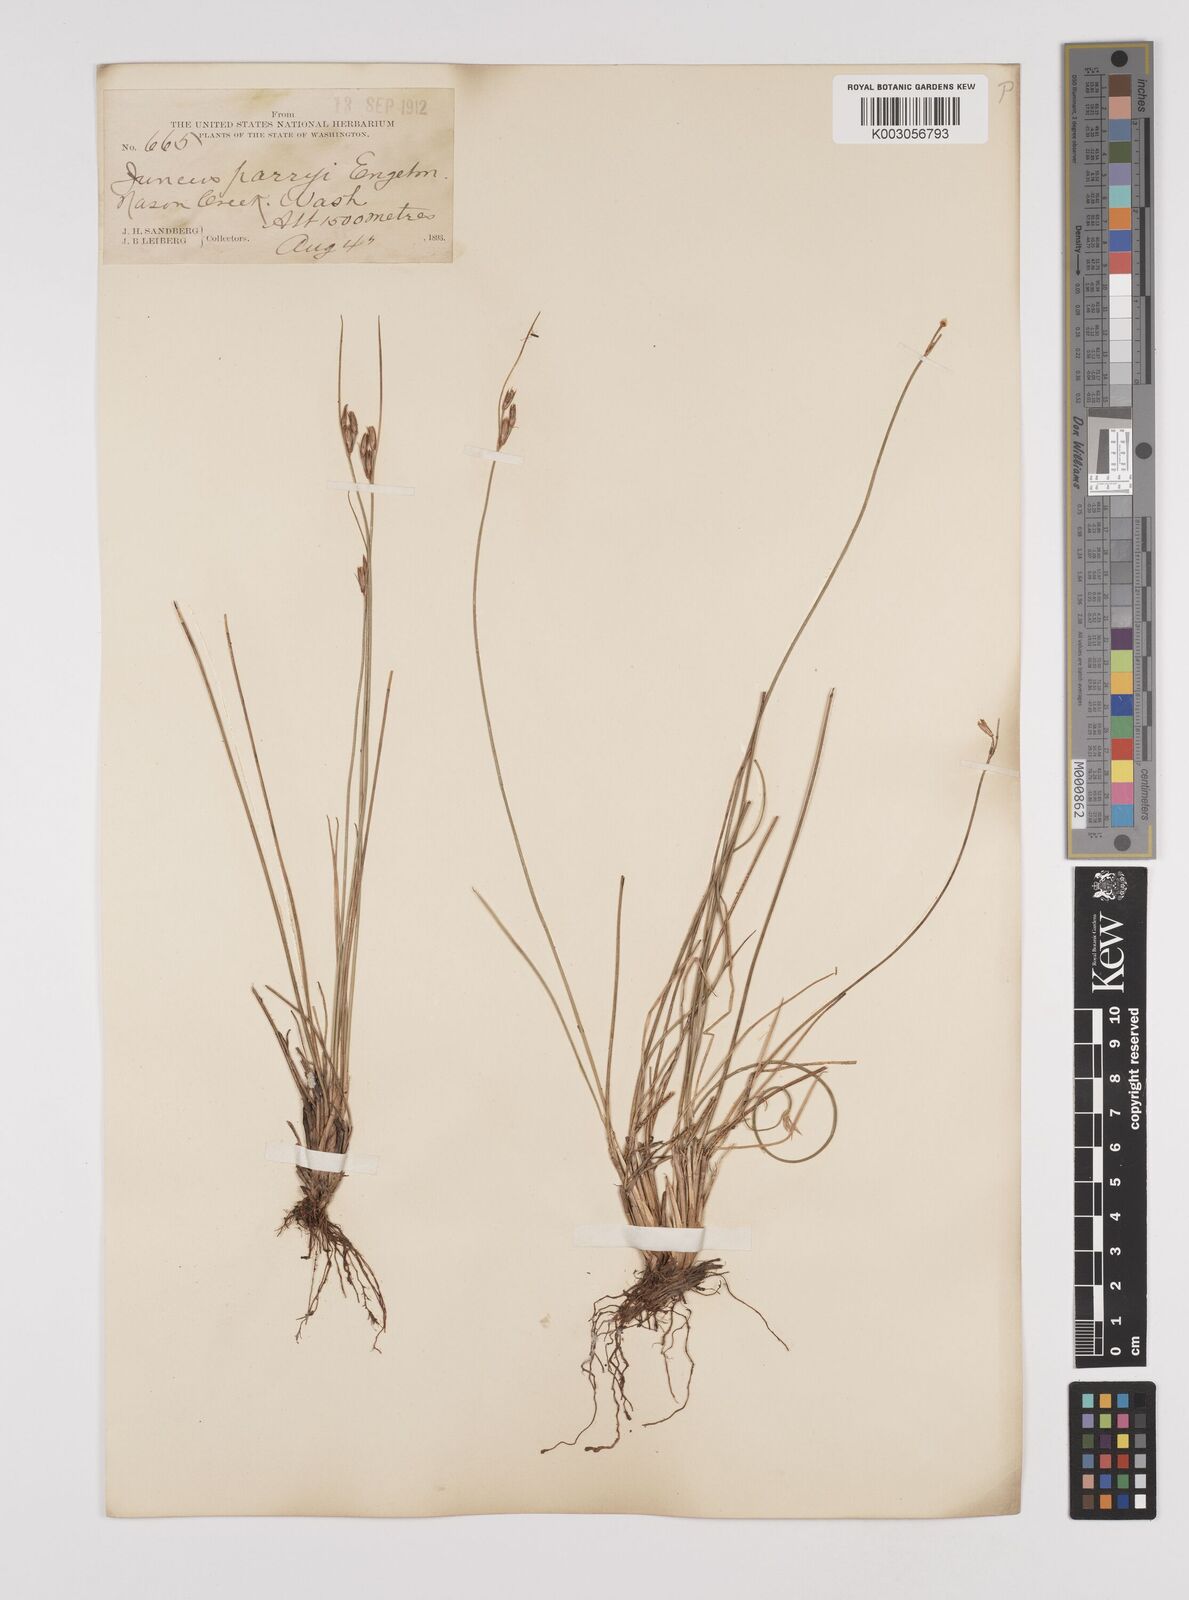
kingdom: Plantae
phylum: Tracheophyta
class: Liliopsida
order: Poales
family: Juncaceae
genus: Juncus
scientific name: Juncus parryi
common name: Parry's rush
